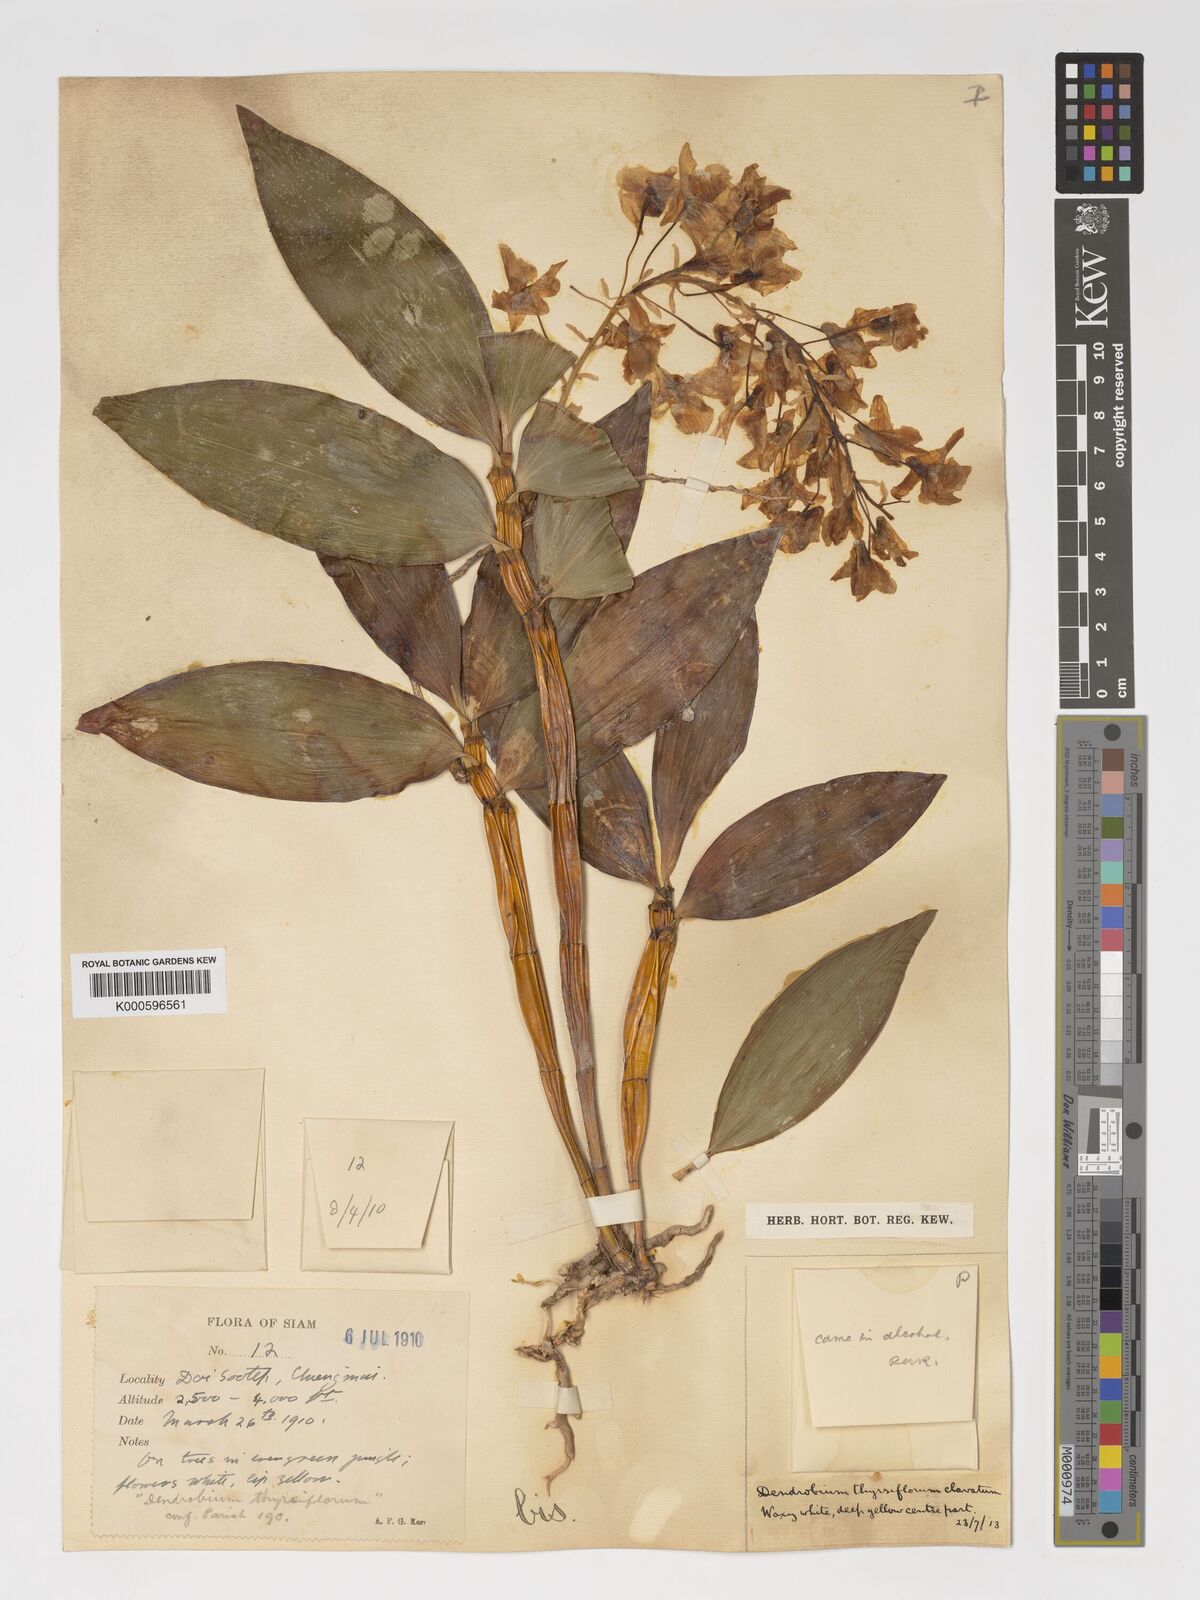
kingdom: Plantae
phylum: Tracheophyta
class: Liliopsida
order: Asparagales
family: Orchidaceae
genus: Dendrobium
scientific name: Dendrobium
